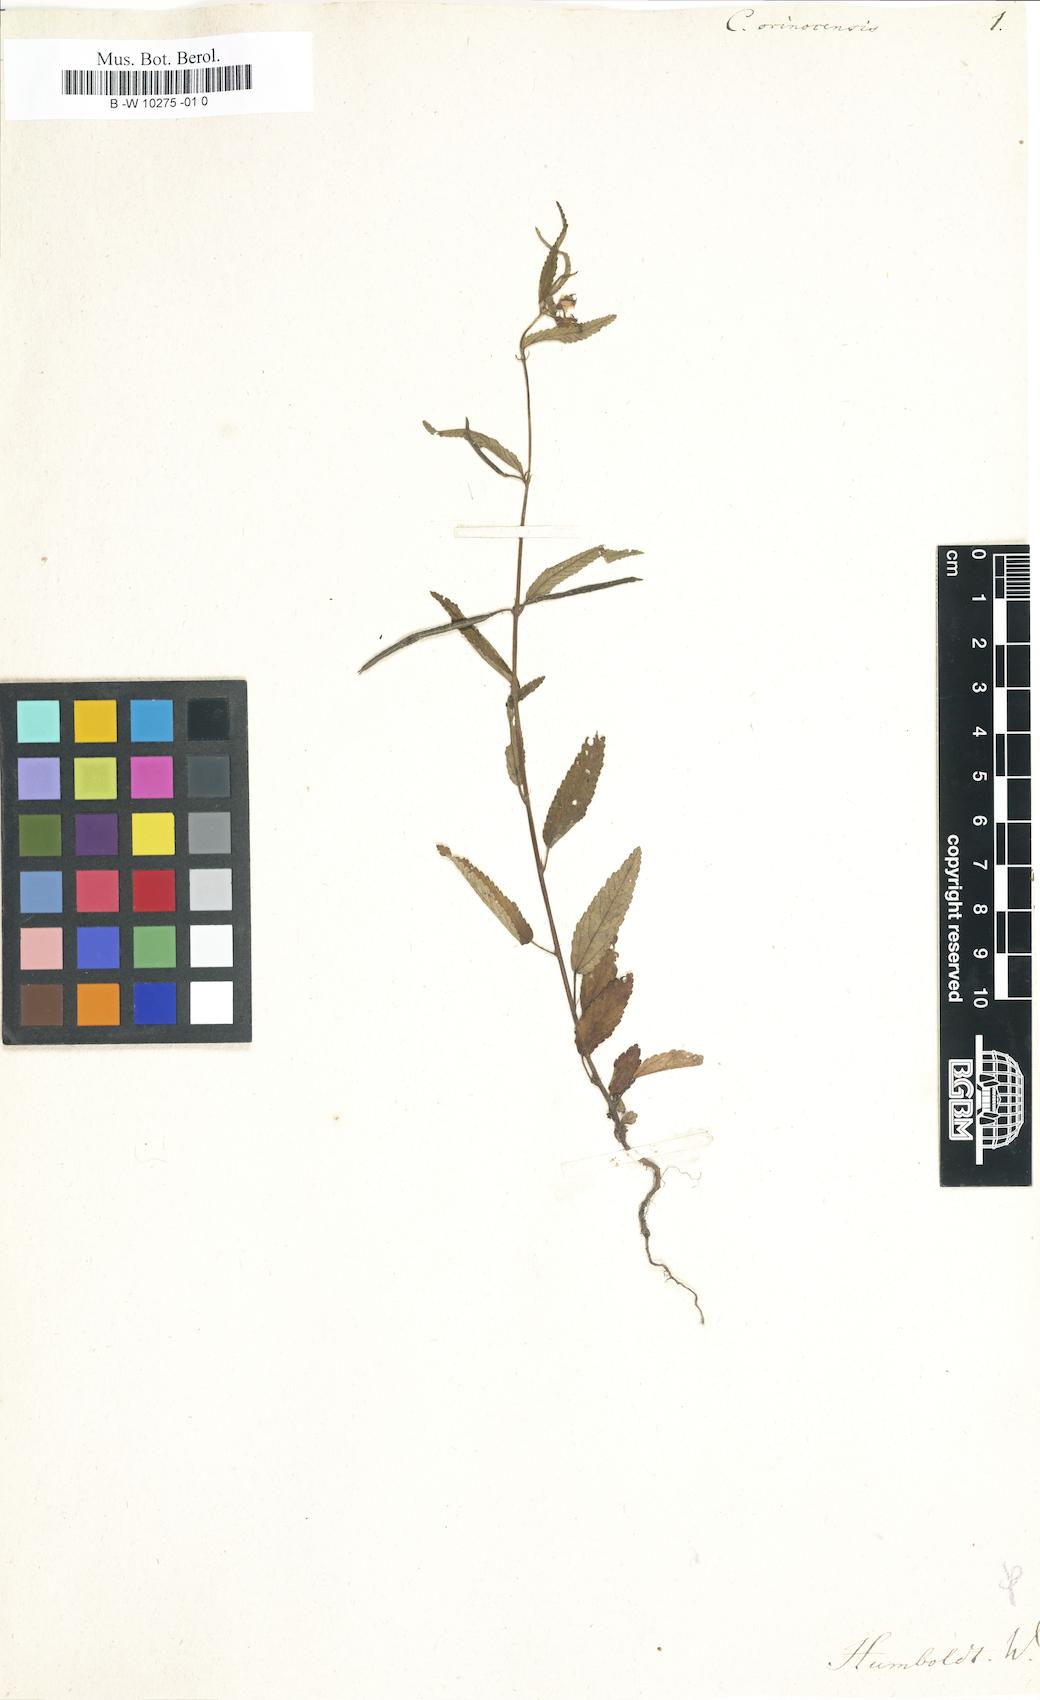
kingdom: Plantae
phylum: Tracheophyta
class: Magnoliopsida
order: Malvales
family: Malvaceae
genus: Corchorus
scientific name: Corchorus orinocensis
